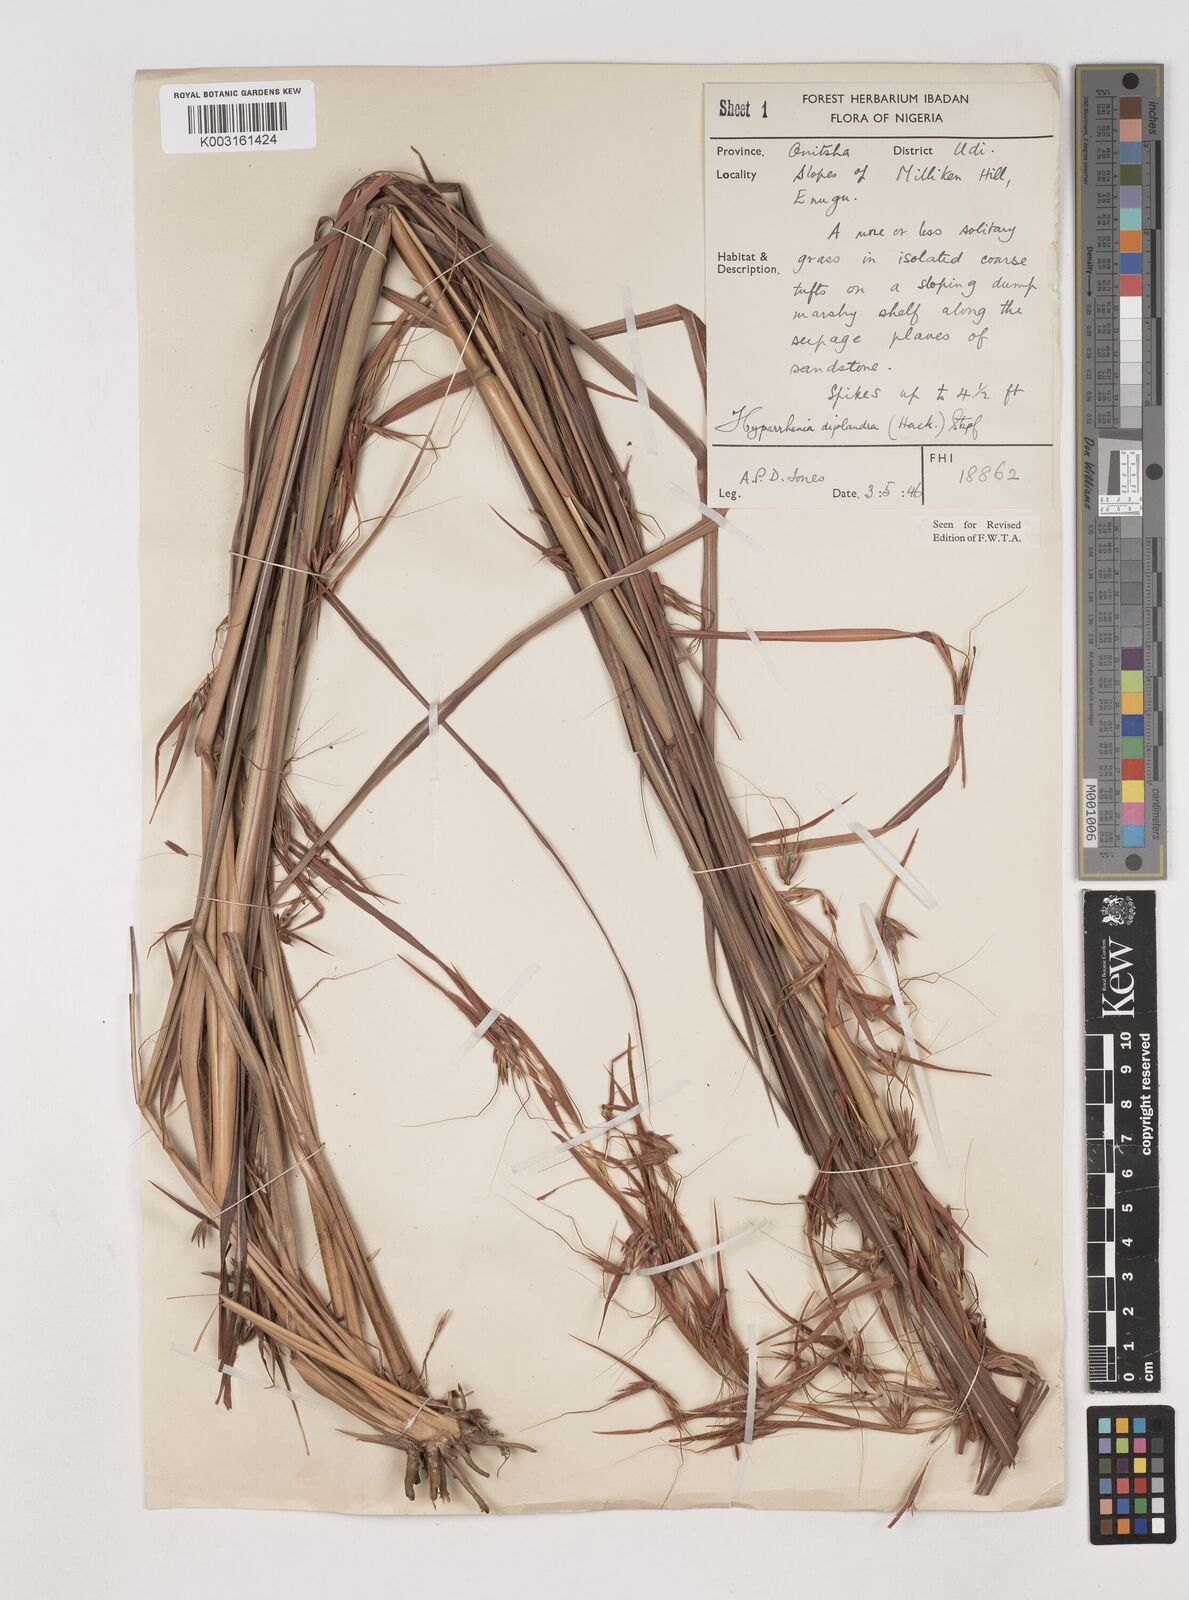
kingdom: Plantae
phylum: Tracheophyta
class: Liliopsida
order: Poales
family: Poaceae
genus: Hyparrhenia
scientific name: Hyparrhenia diplandra
